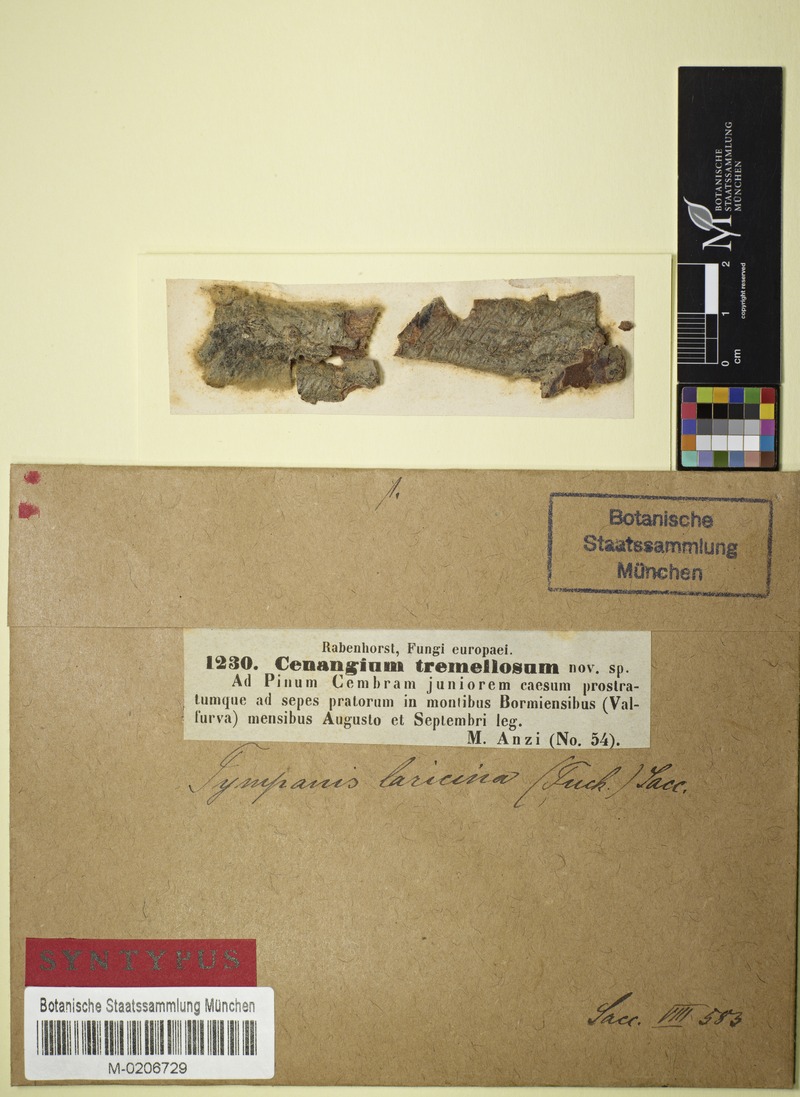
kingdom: Fungi
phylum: Ascomycota
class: Leotiomycetes
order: Helotiales
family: Cenangiaceae
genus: Cenangium
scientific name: Cenangium
